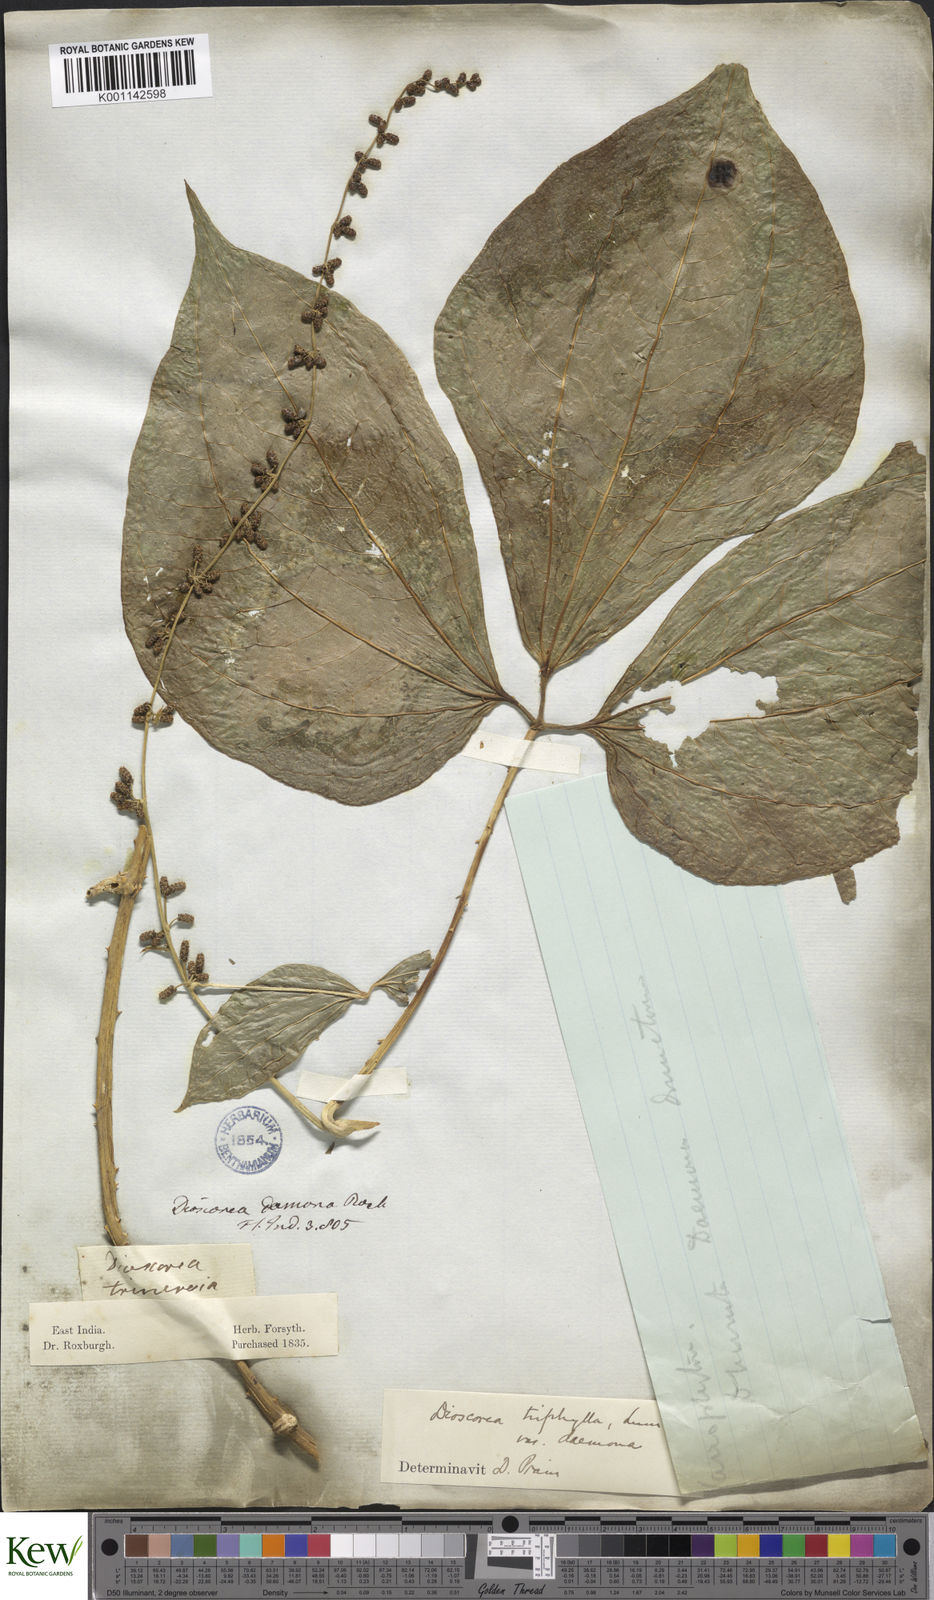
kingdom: Plantae
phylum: Tracheophyta
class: Liliopsida
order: Dioscoreales
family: Dioscoreaceae
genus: Dioscorea
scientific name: Dioscorea pentaphylla
